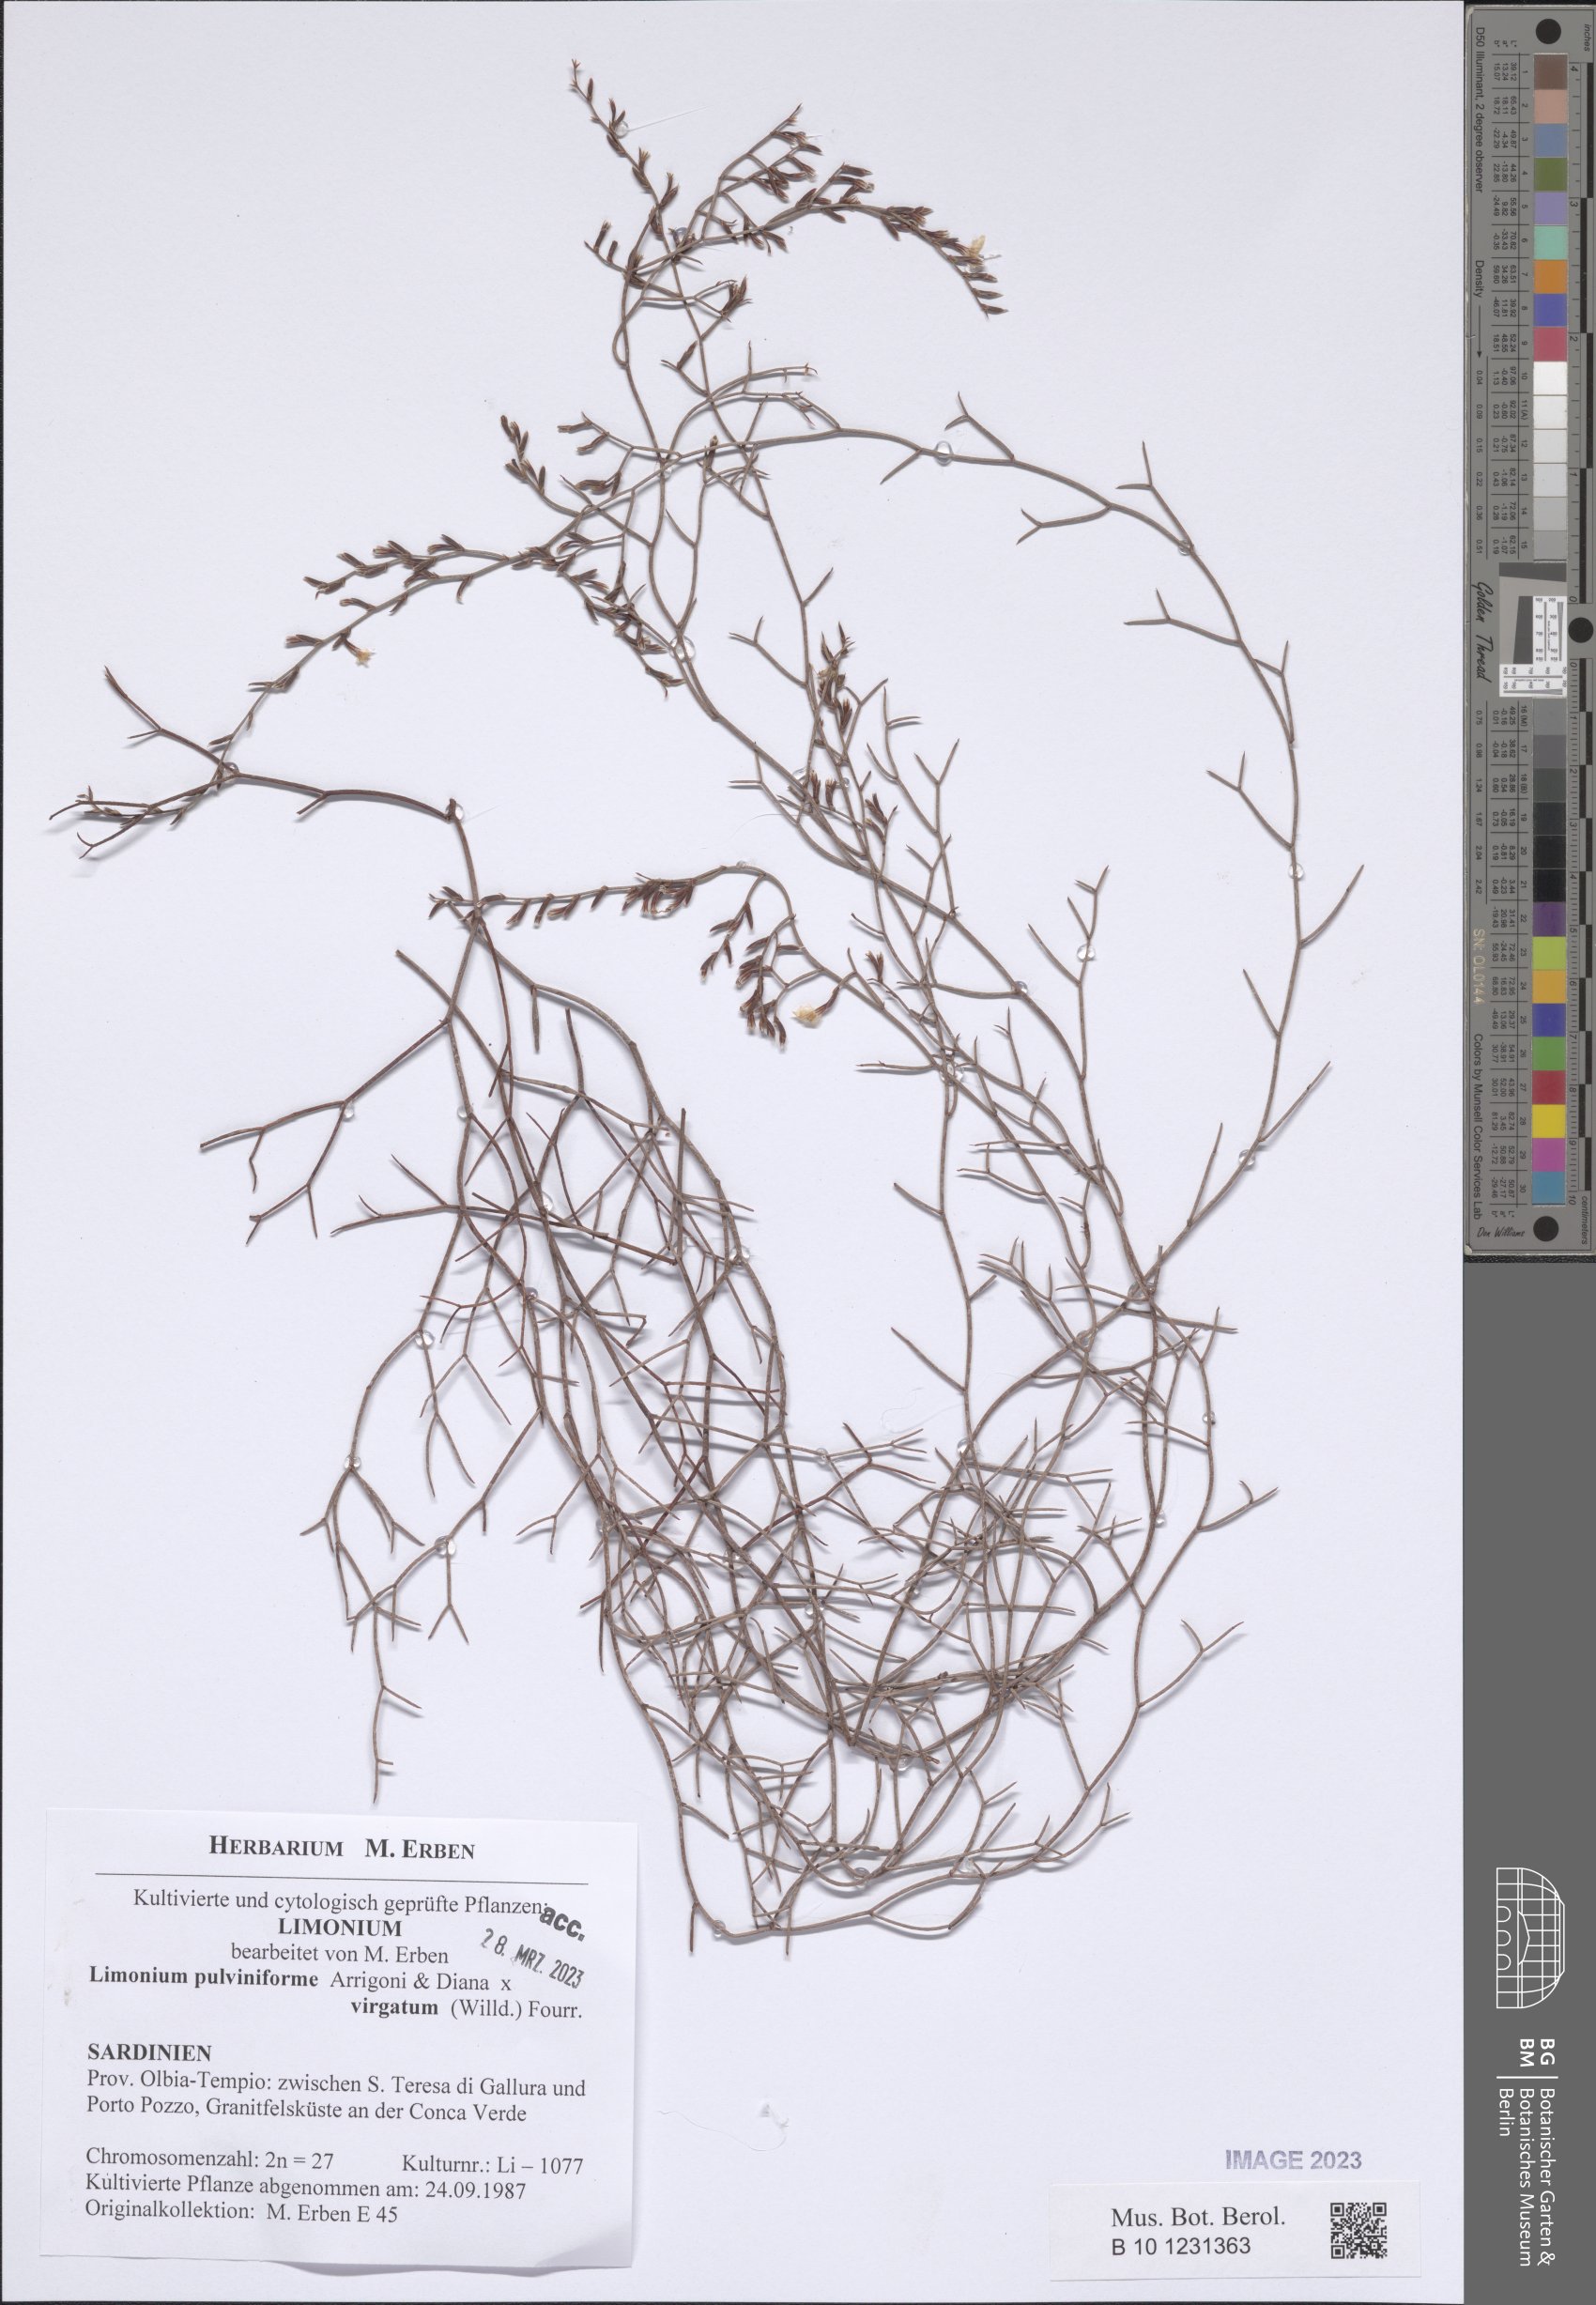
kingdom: Plantae
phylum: Tracheophyta
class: Magnoliopsida
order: Caryophyllales
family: Plumbaginaceae
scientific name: Plumbaginaceae
